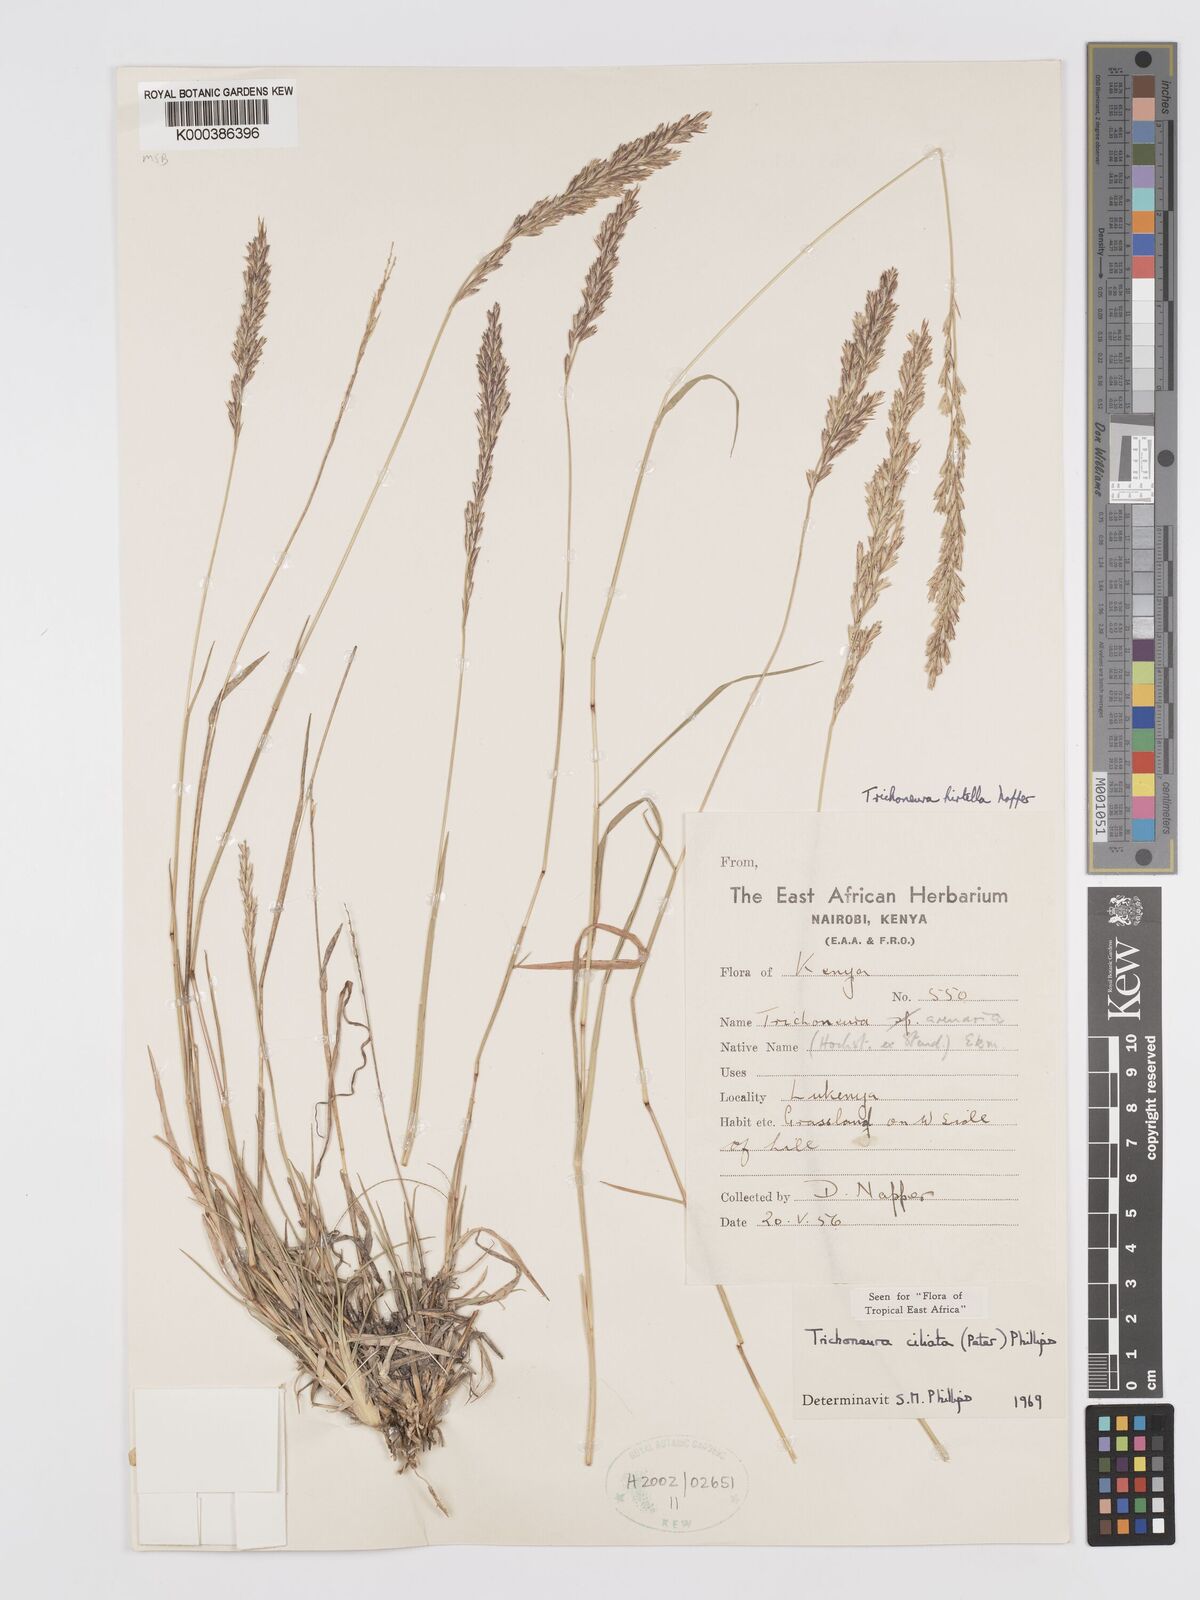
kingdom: Plantae
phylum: Tracheophyta
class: Liliopsida
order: Poales
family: Poaceae
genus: Trichoneura
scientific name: Trichoneura ciliata
